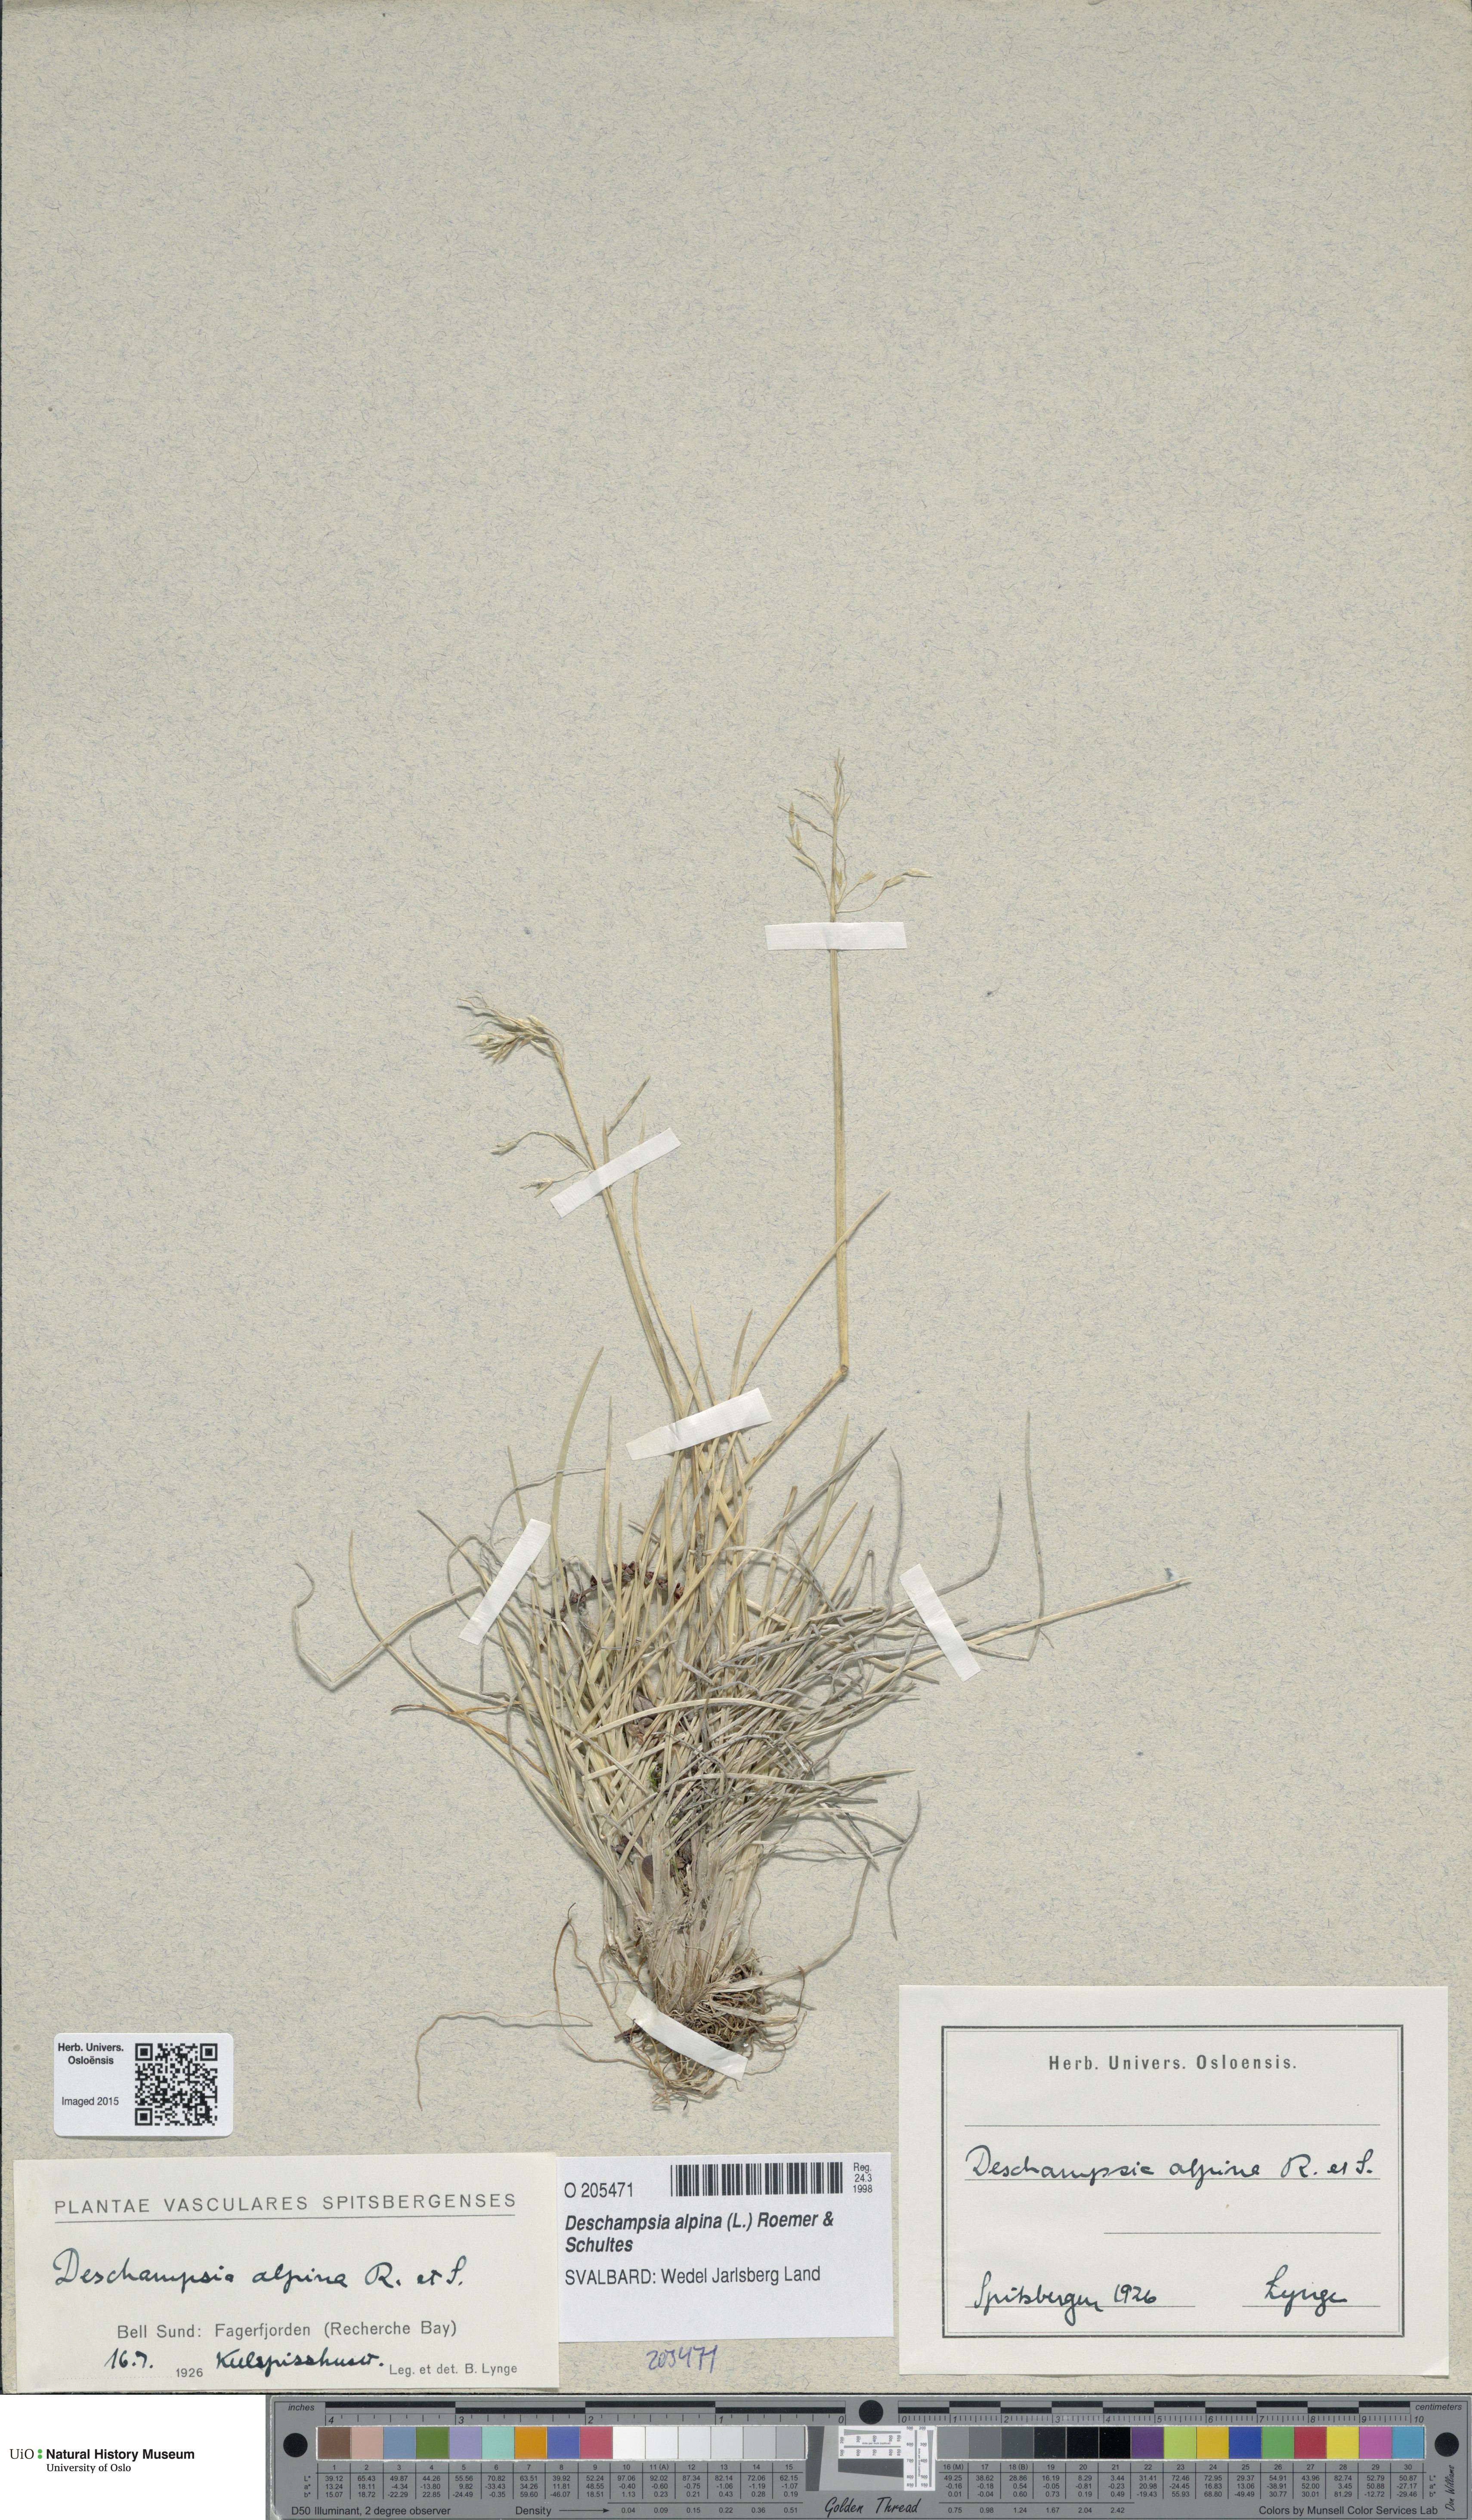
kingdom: Plantae
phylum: Tracheophyta
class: Liliopsida
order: Poales
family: Poaceae
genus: Deschampsia
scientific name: Deschampsia cespitosa
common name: Tufted hair-grass
